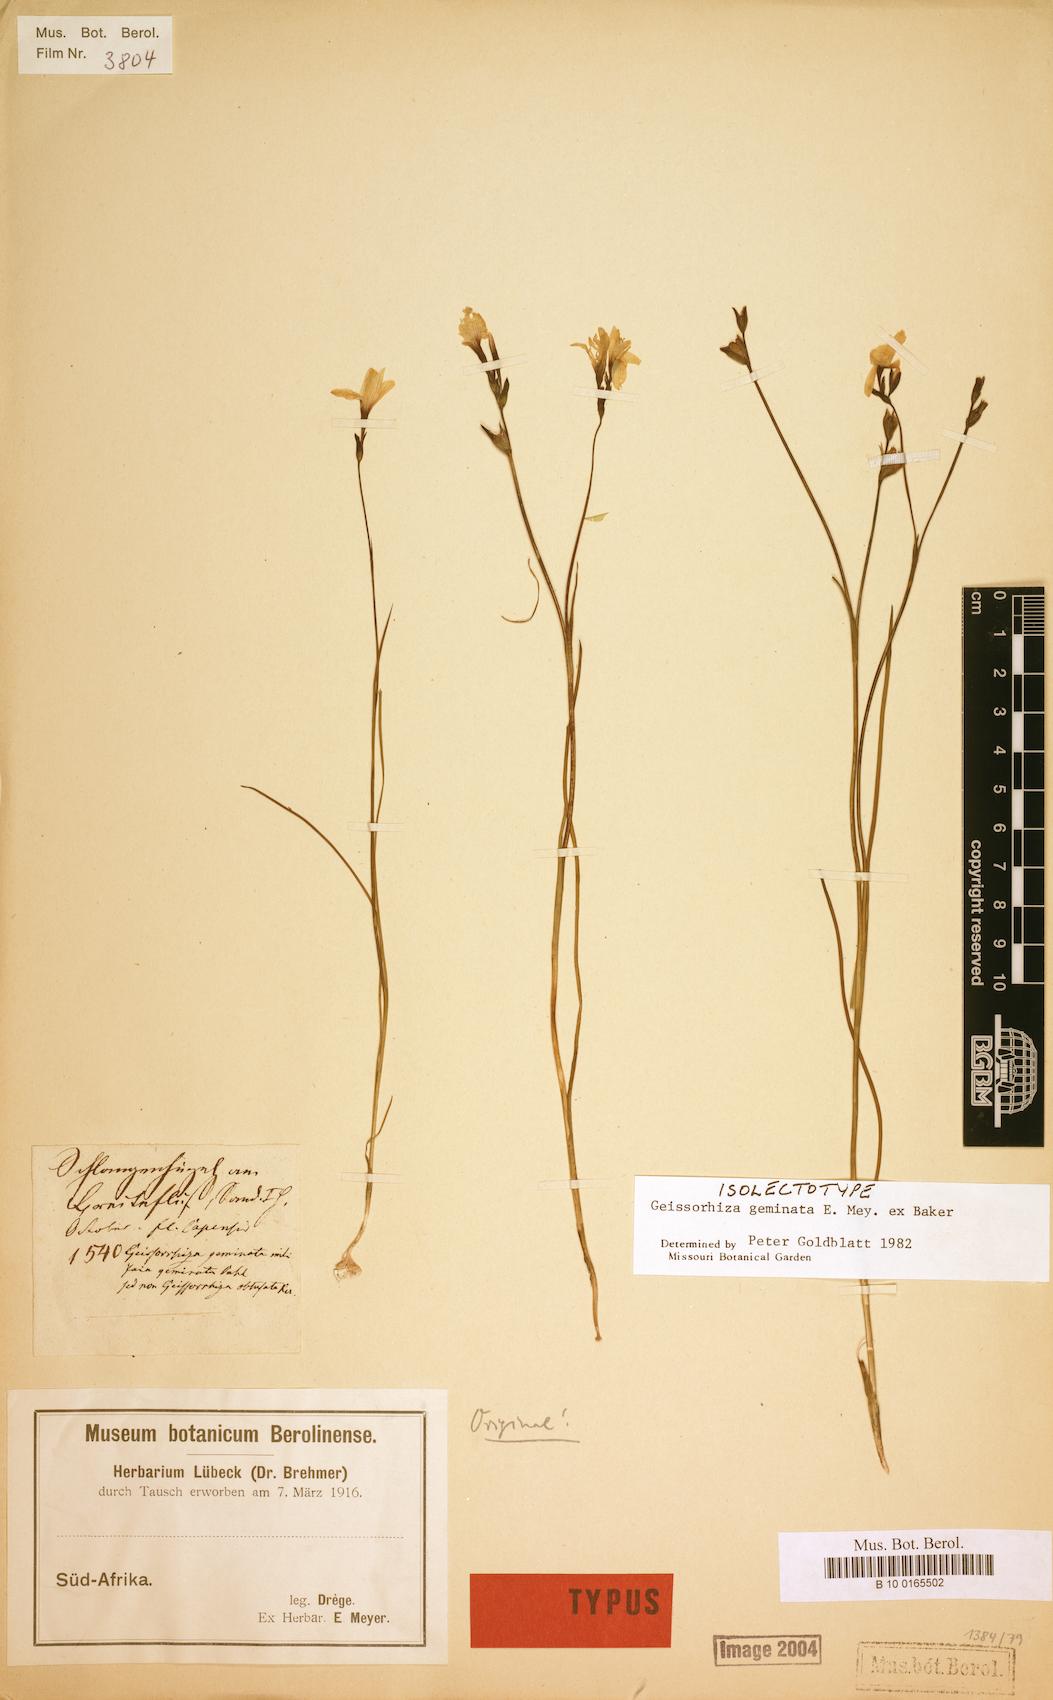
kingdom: Plantae
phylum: Tracheophyta
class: Liliopsida
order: Asparagales
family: Iridaceae
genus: Geissorhiza
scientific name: Geissorhiza geminata
